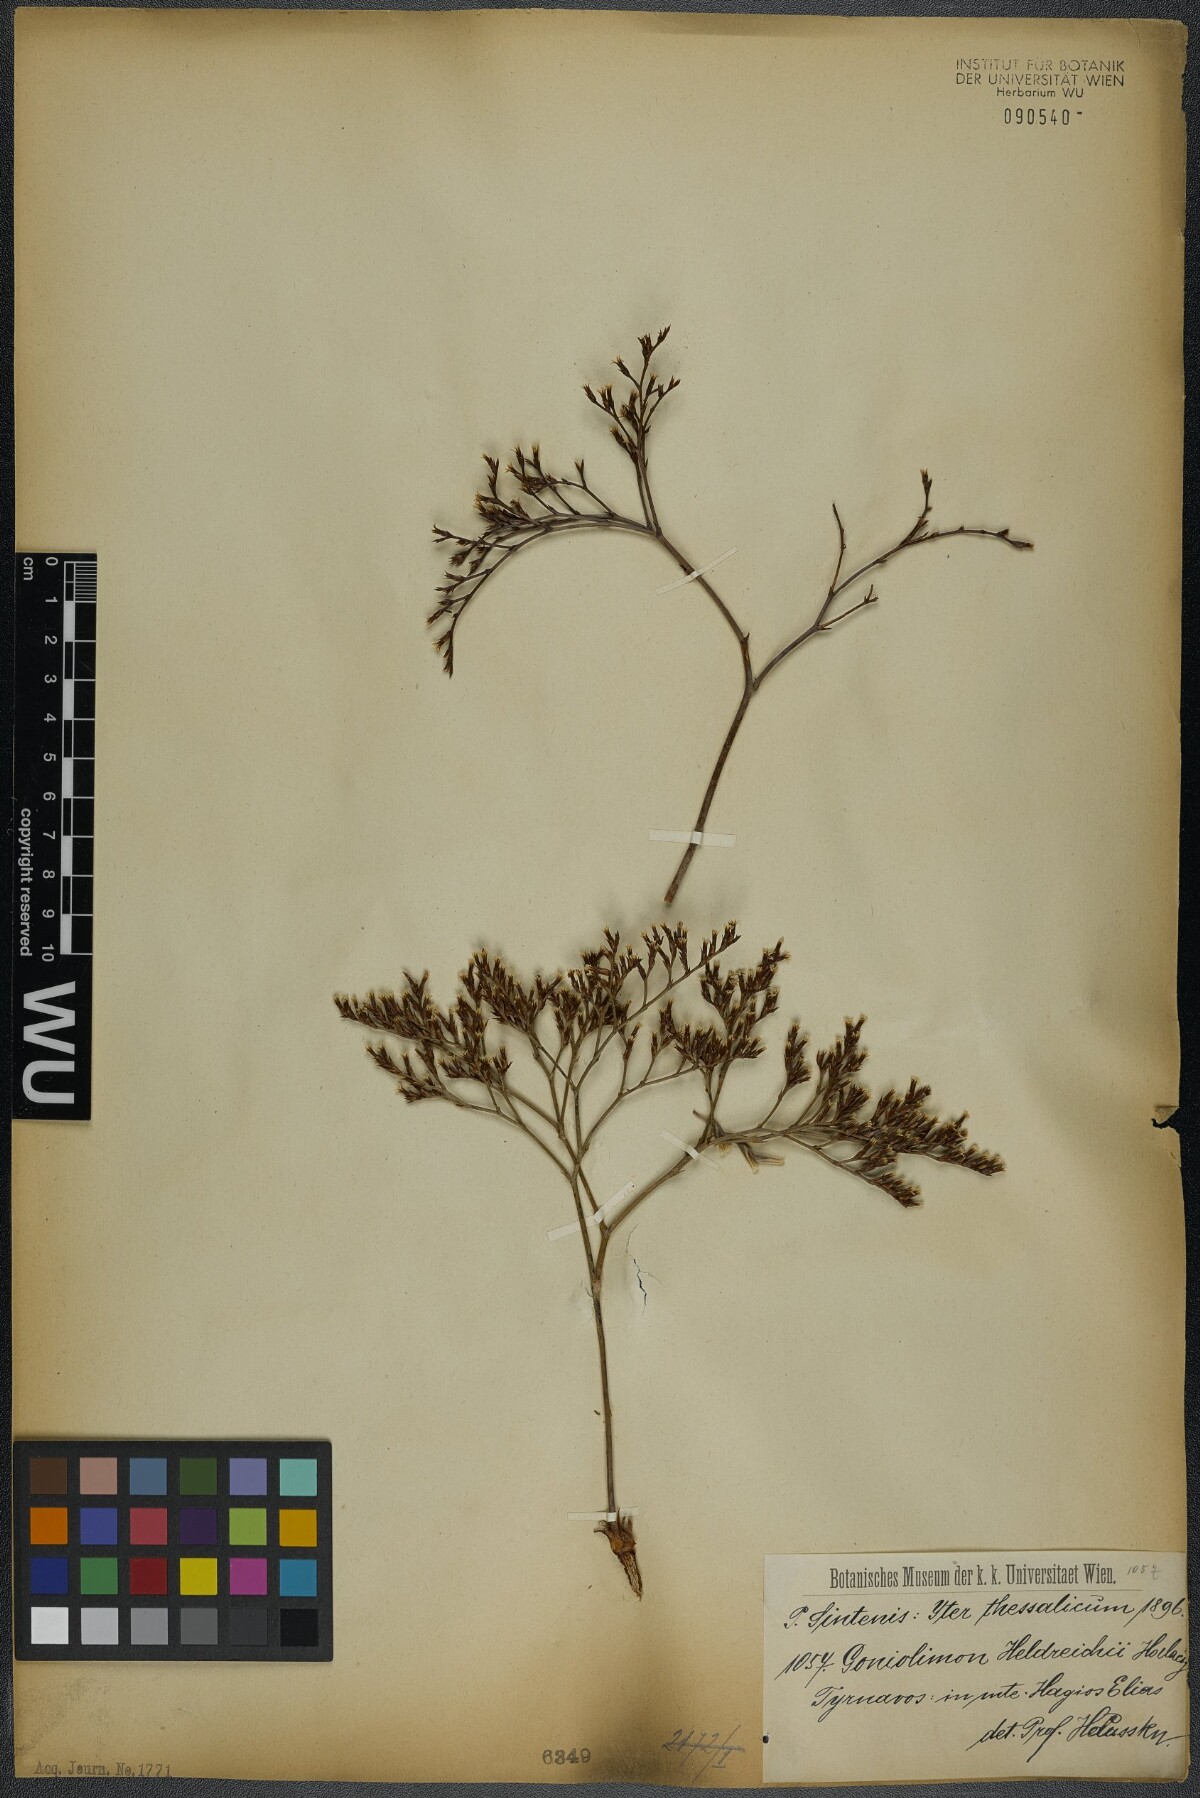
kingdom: Plantae
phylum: Tracheophyta
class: Magnoliopsida
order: Caryophyllales
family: Plumbaginaceae
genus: Goniolimon
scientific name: Goniolimon heldreichii
